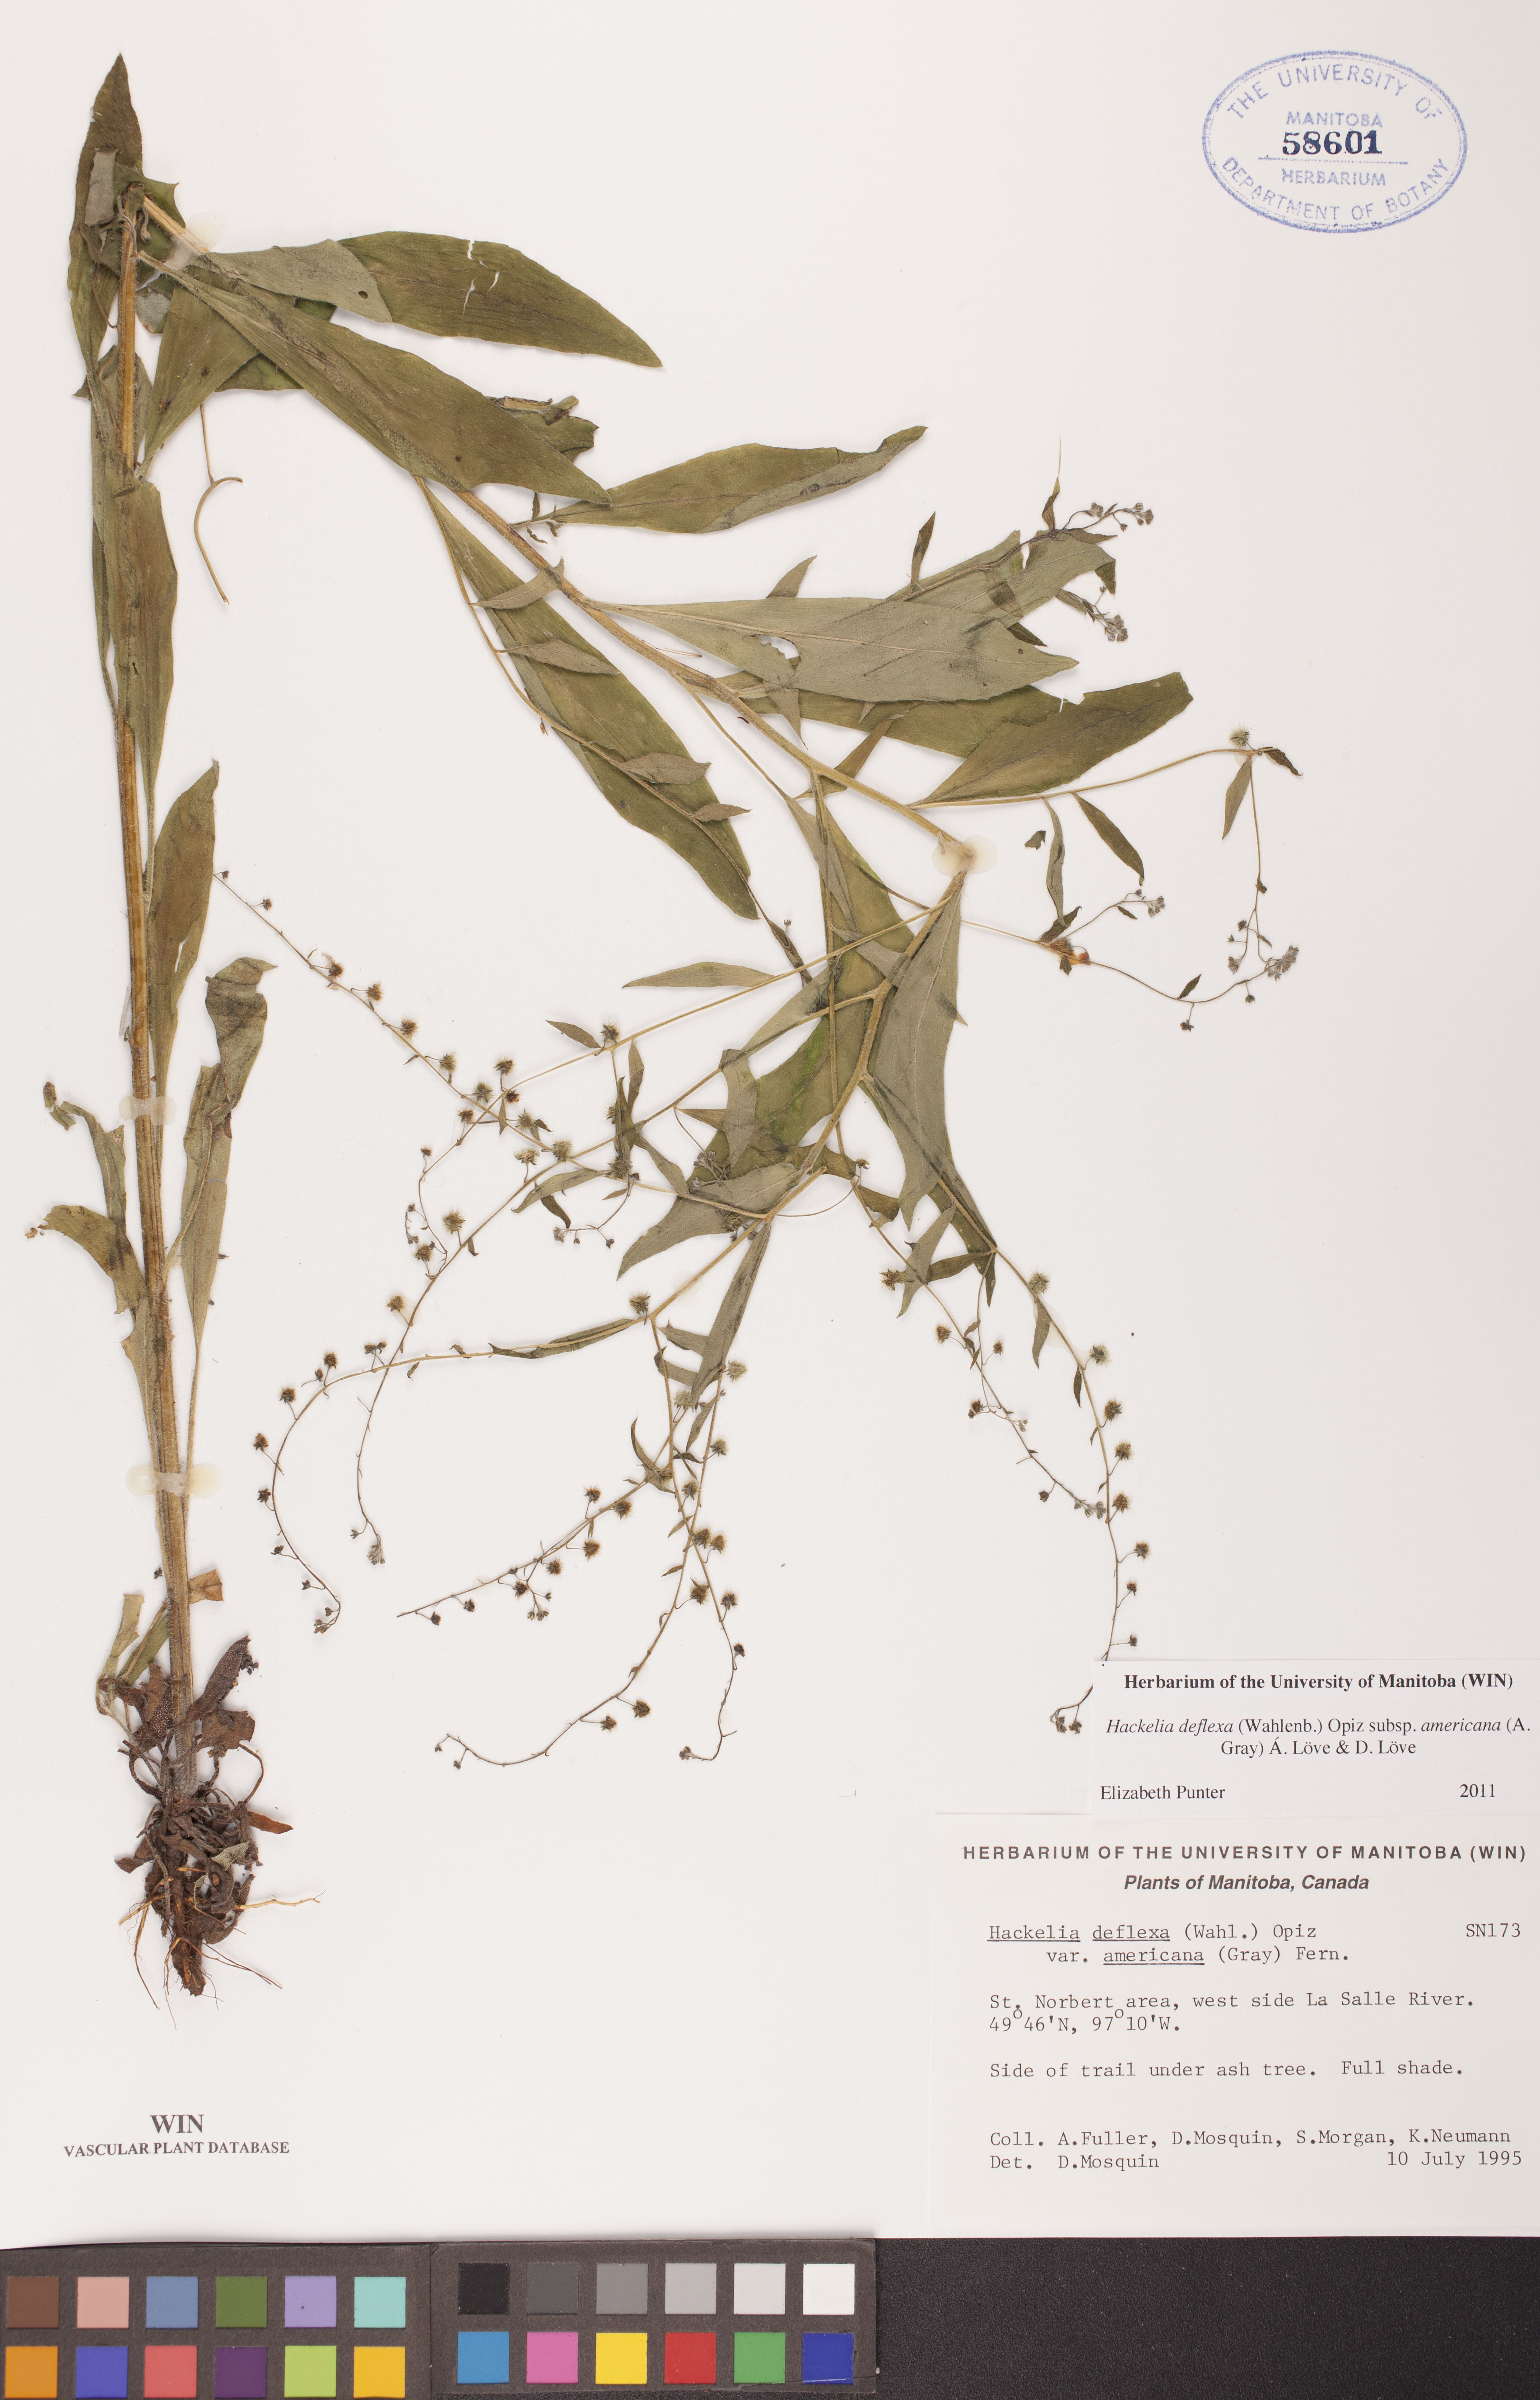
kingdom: Plantae
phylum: Tracheophyta
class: Magnoliopsida
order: Boraginales
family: Boraginaceae
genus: Hackelia
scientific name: Hackelia deflexa
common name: Nodding stickseed
